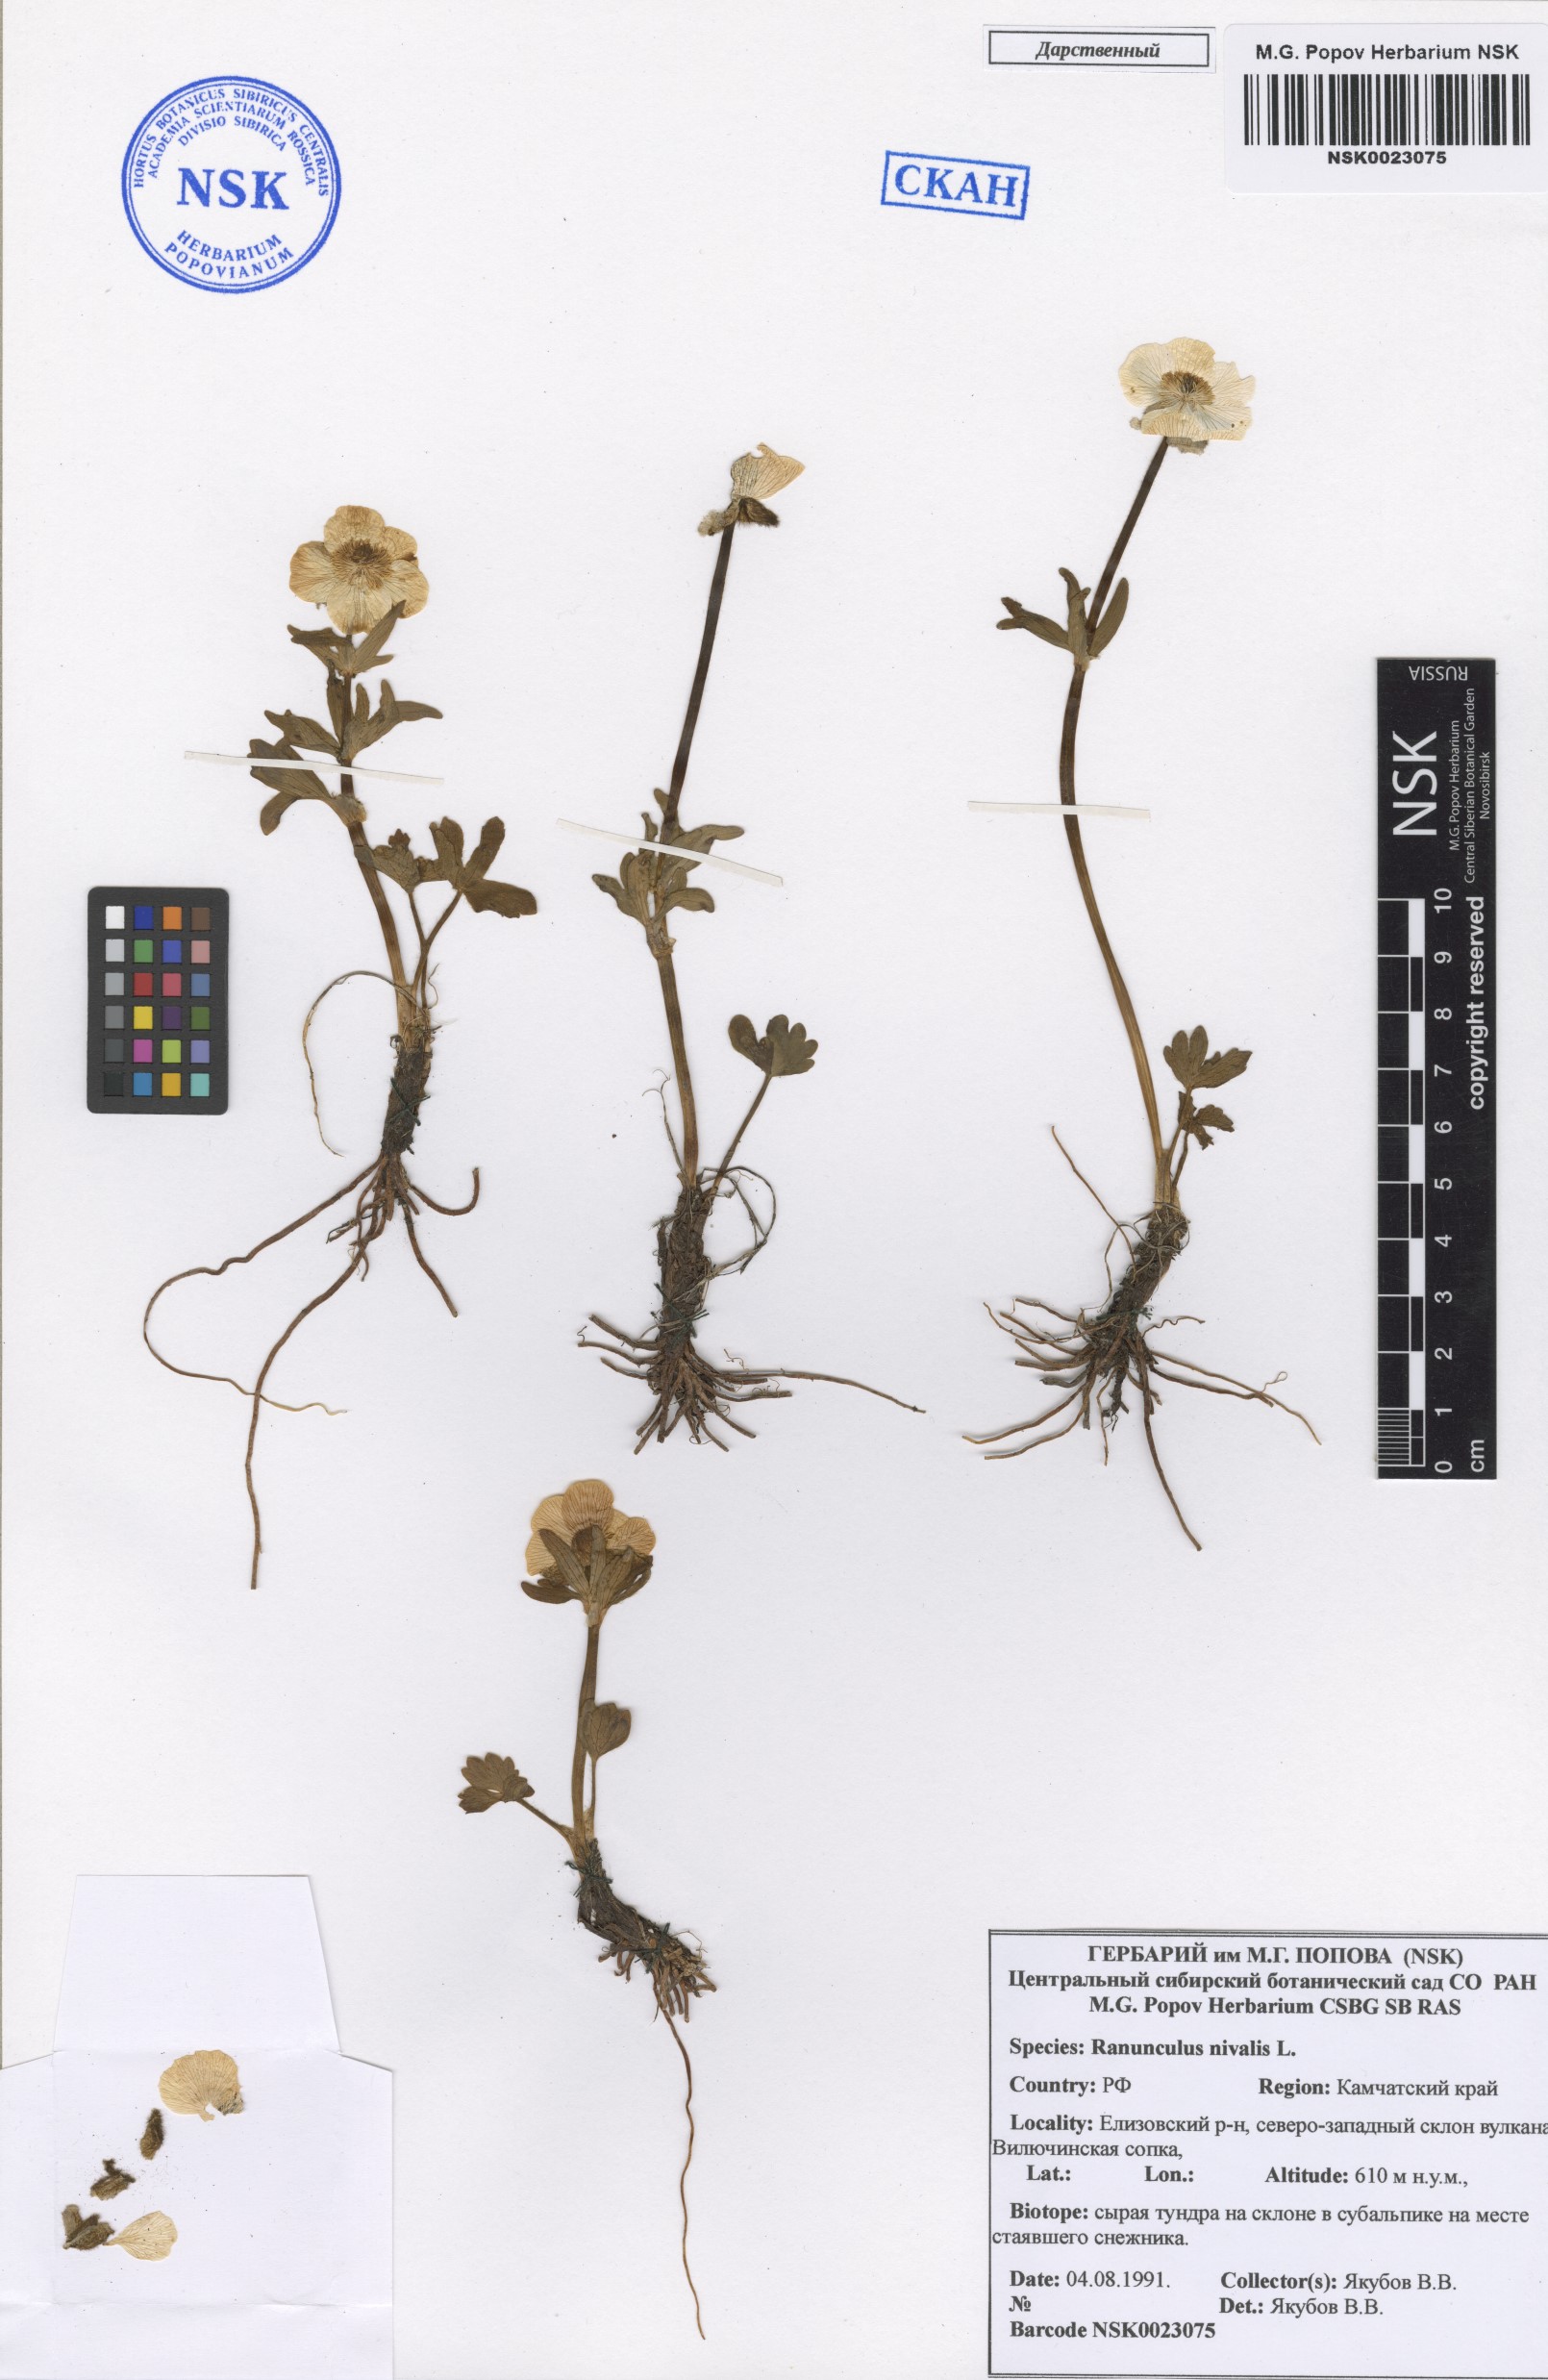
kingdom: Plantae
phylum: Tracheophyta
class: Magnoliopsida
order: Ranunculales
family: Ranunculaceae
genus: Ranunculus
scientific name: Ranunculus nivalis
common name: Snow buttercup
